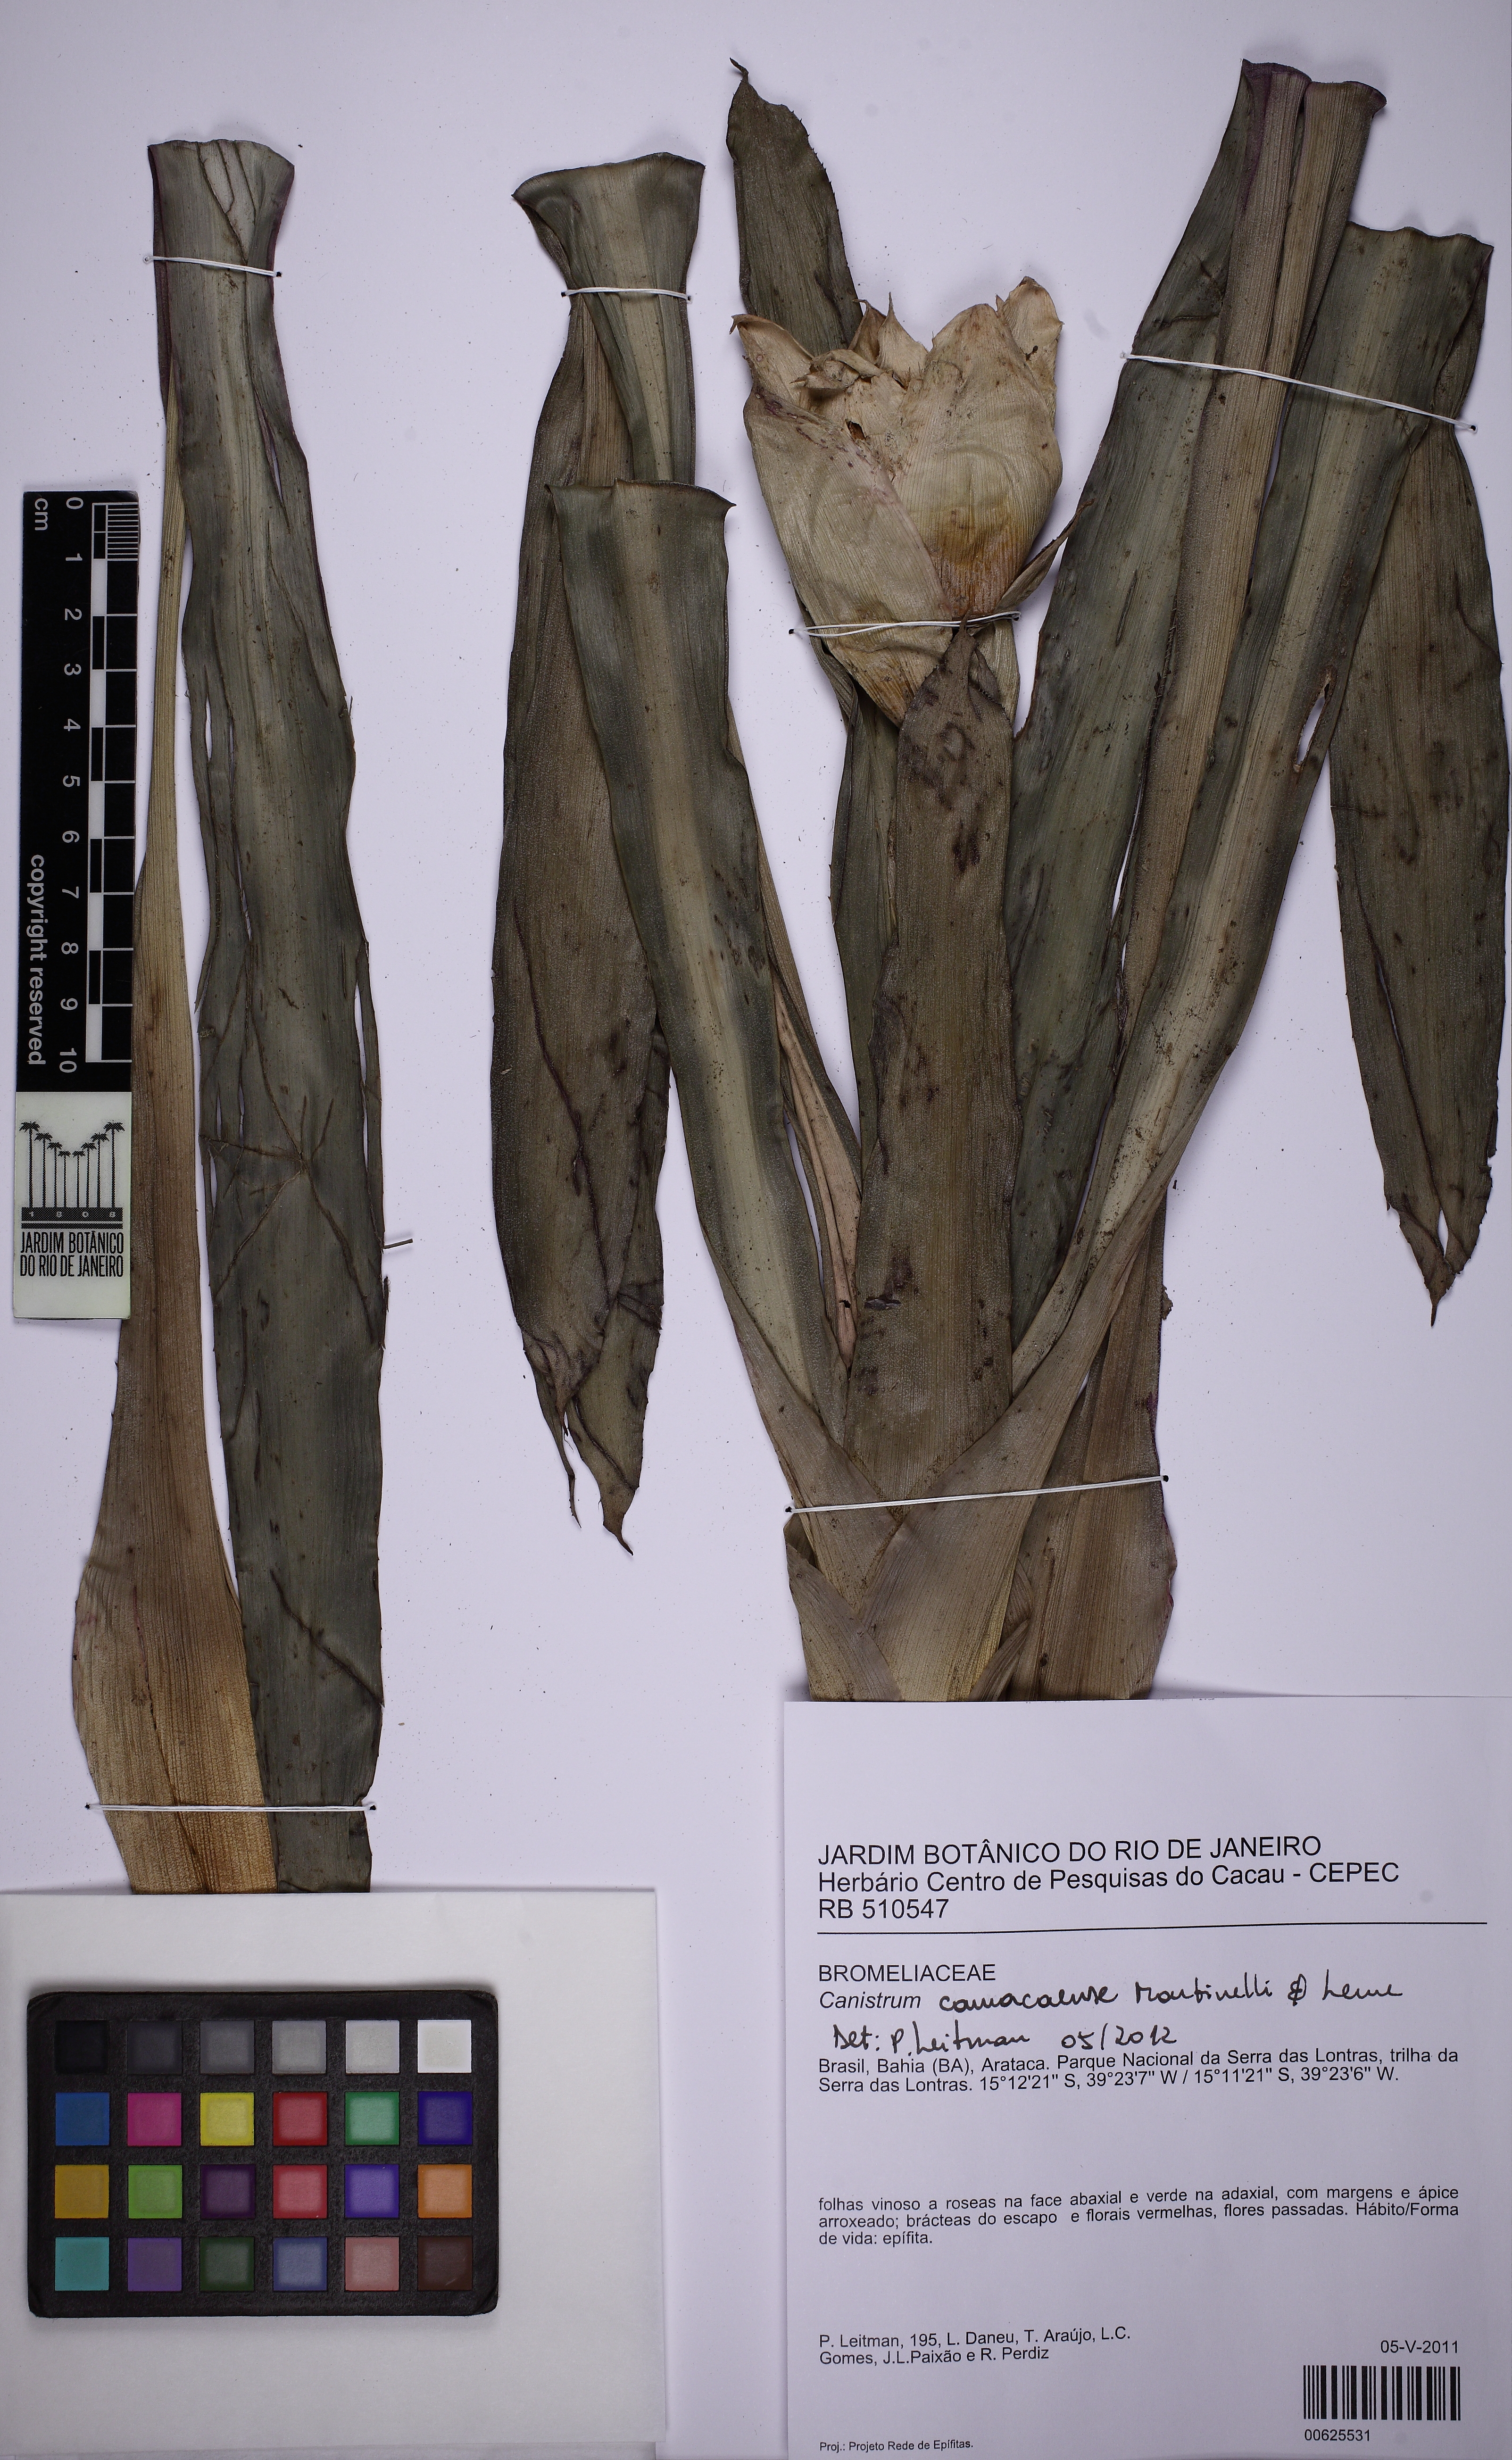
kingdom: Plantae
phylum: Tracheophyta
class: Liliopsida
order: Poales
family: Bromeliaceae
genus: Canistrum
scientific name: Canistrum camacaense
